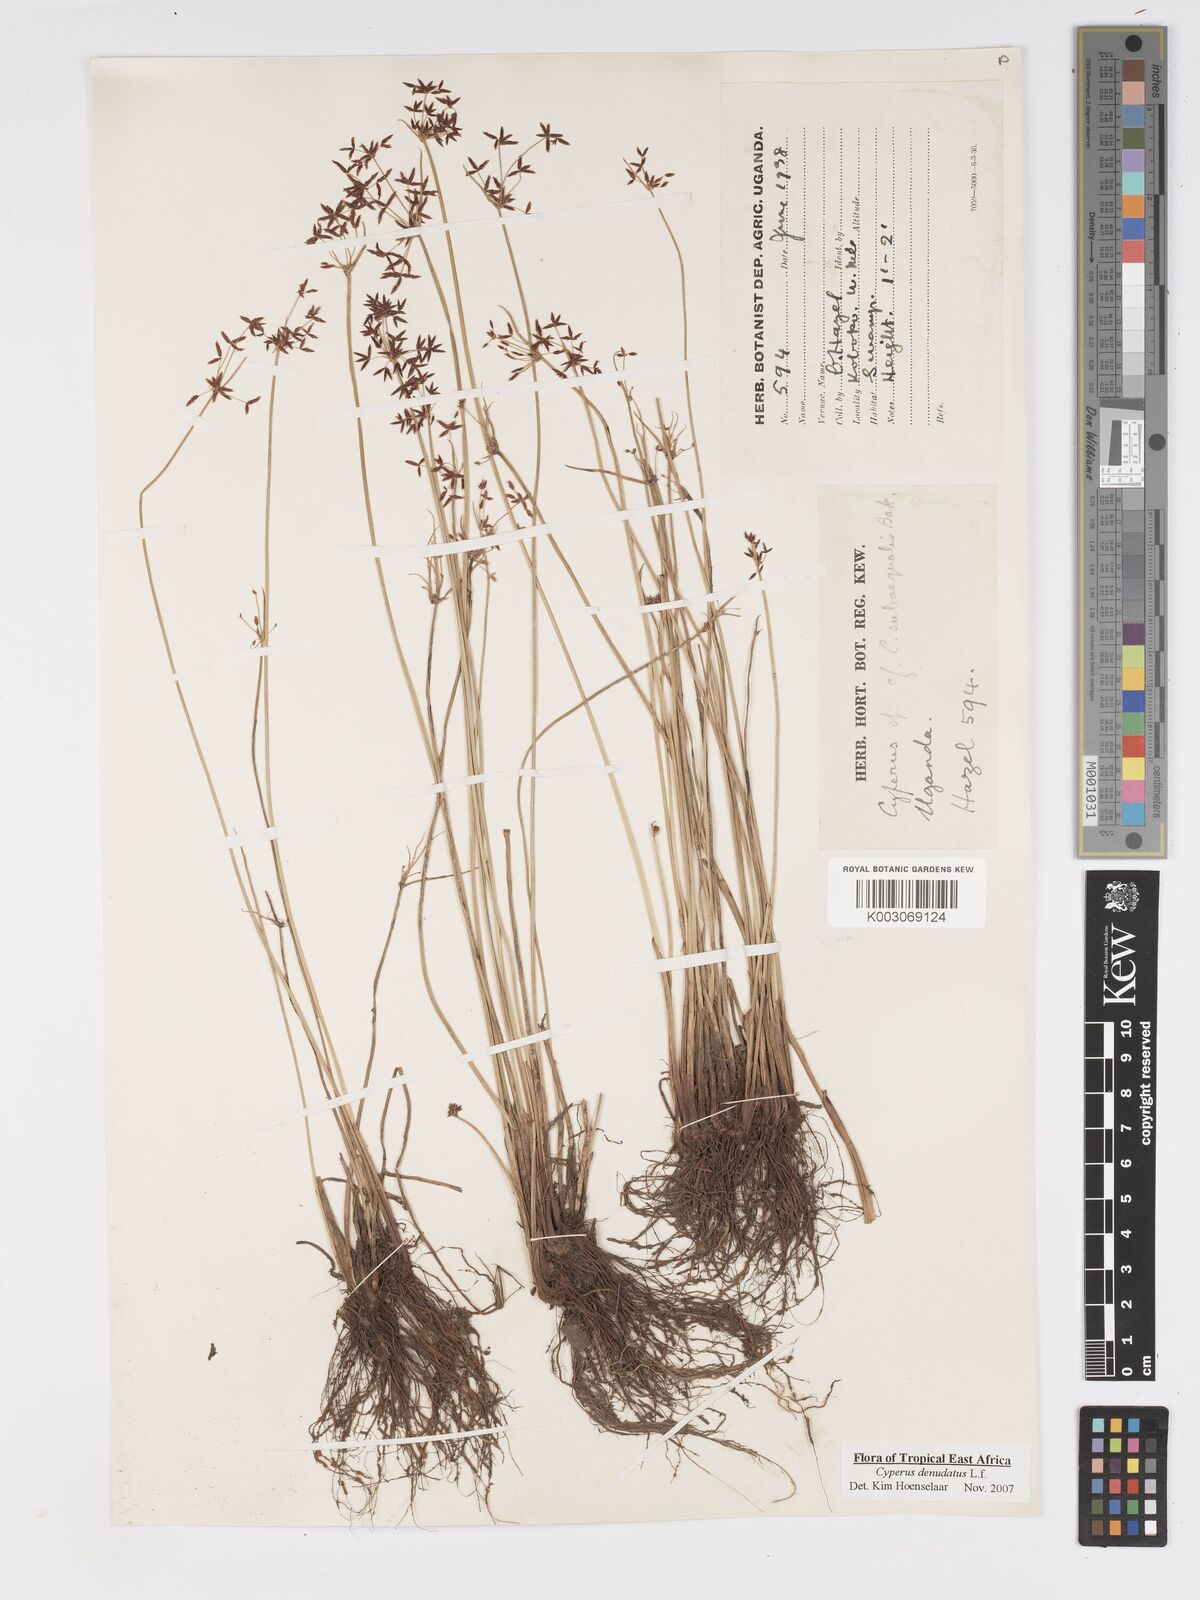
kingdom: Plantae
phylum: Tracheophyta
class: Liliopsida
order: Poales
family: Cyperaceae
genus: Cyperus
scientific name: Cyperus platycaulis
